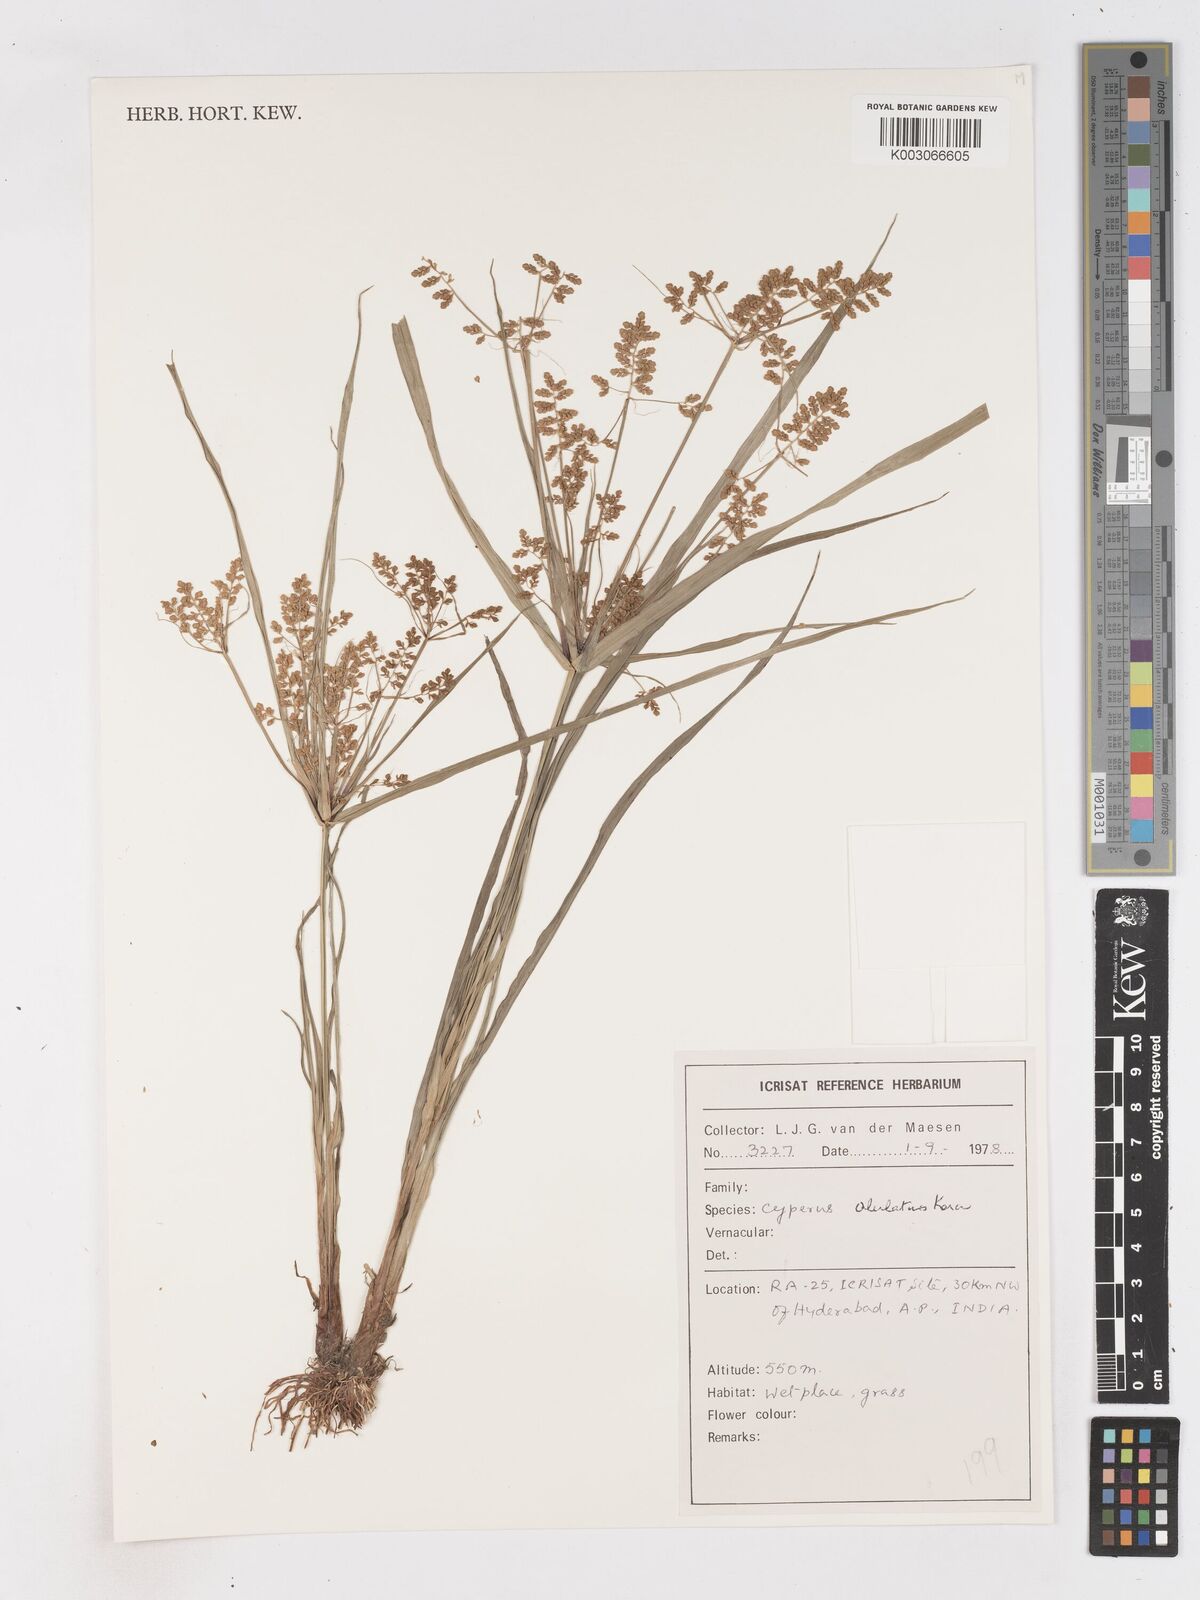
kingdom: Plantae
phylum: Tracheophyta
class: Liliopsida
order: Poales
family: Cyperaceae
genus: Cyperus
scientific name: Cyperus alulatus
